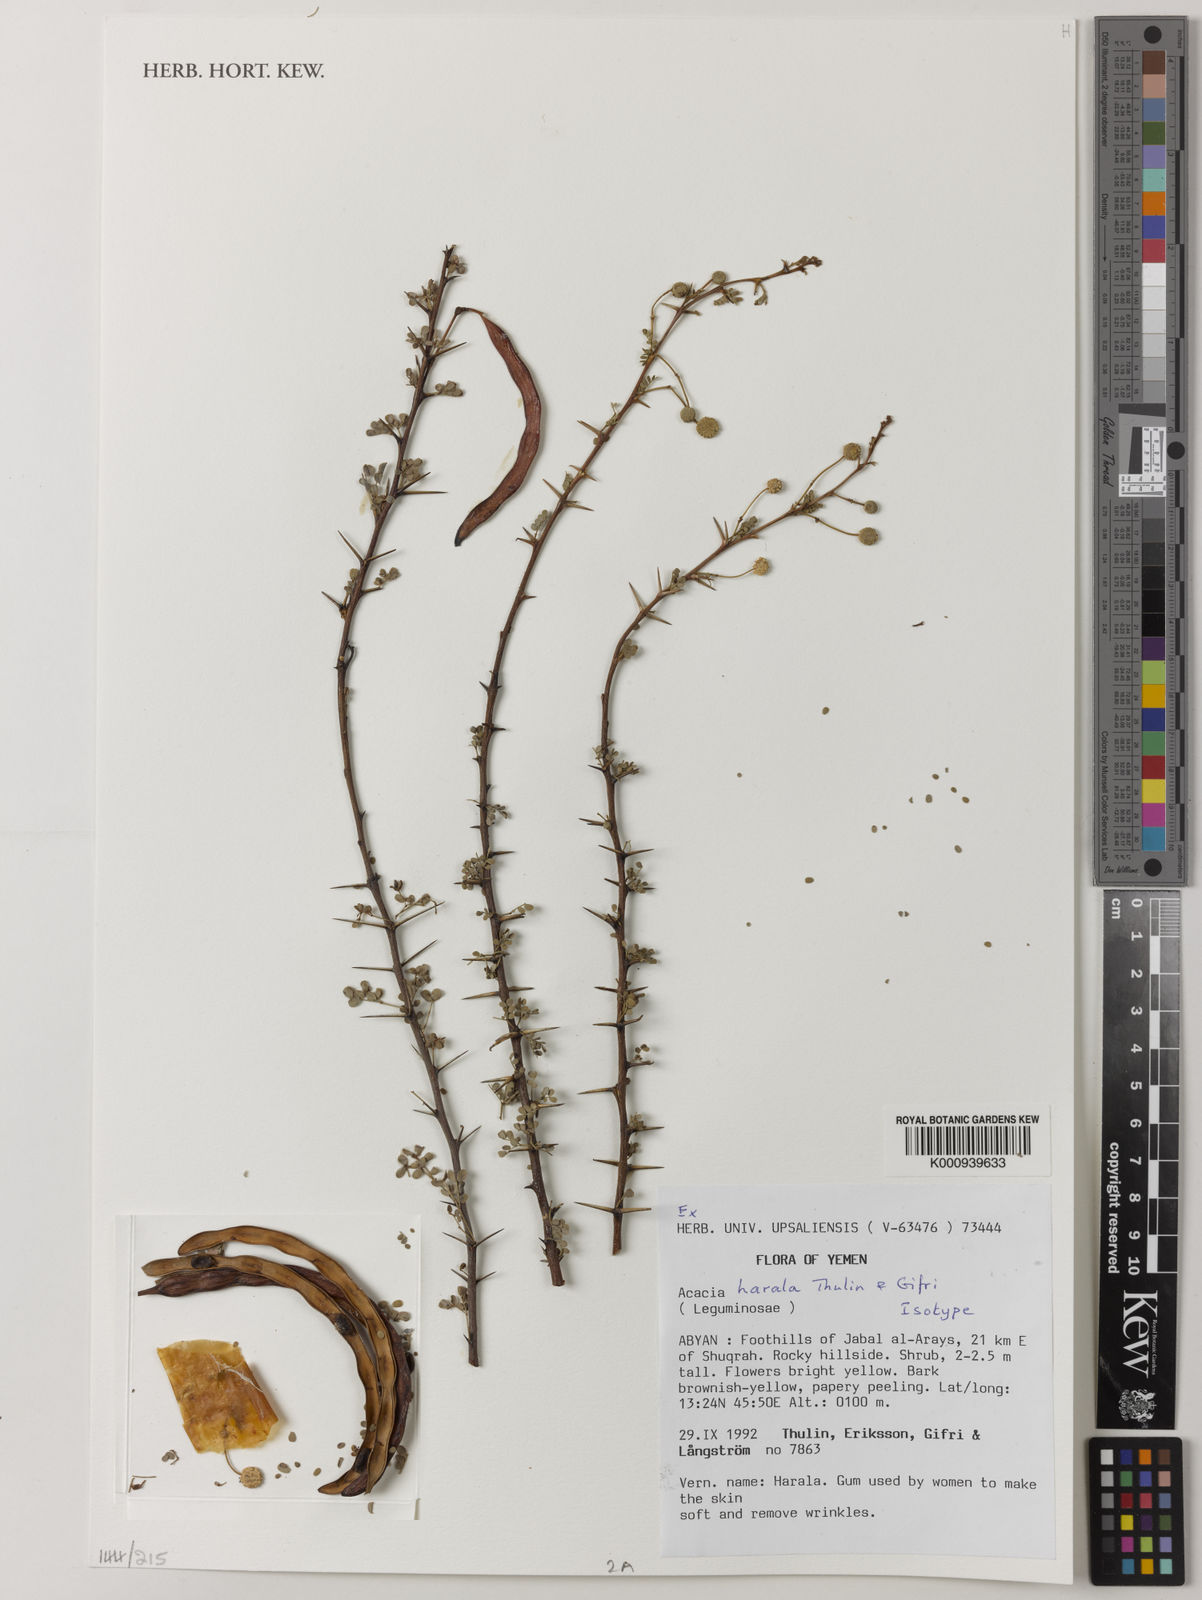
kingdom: Plantae
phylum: Tracheophyta
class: Magnoliopsida
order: Fabales
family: Fabaceae
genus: Vachellia
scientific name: Vachellia harala
